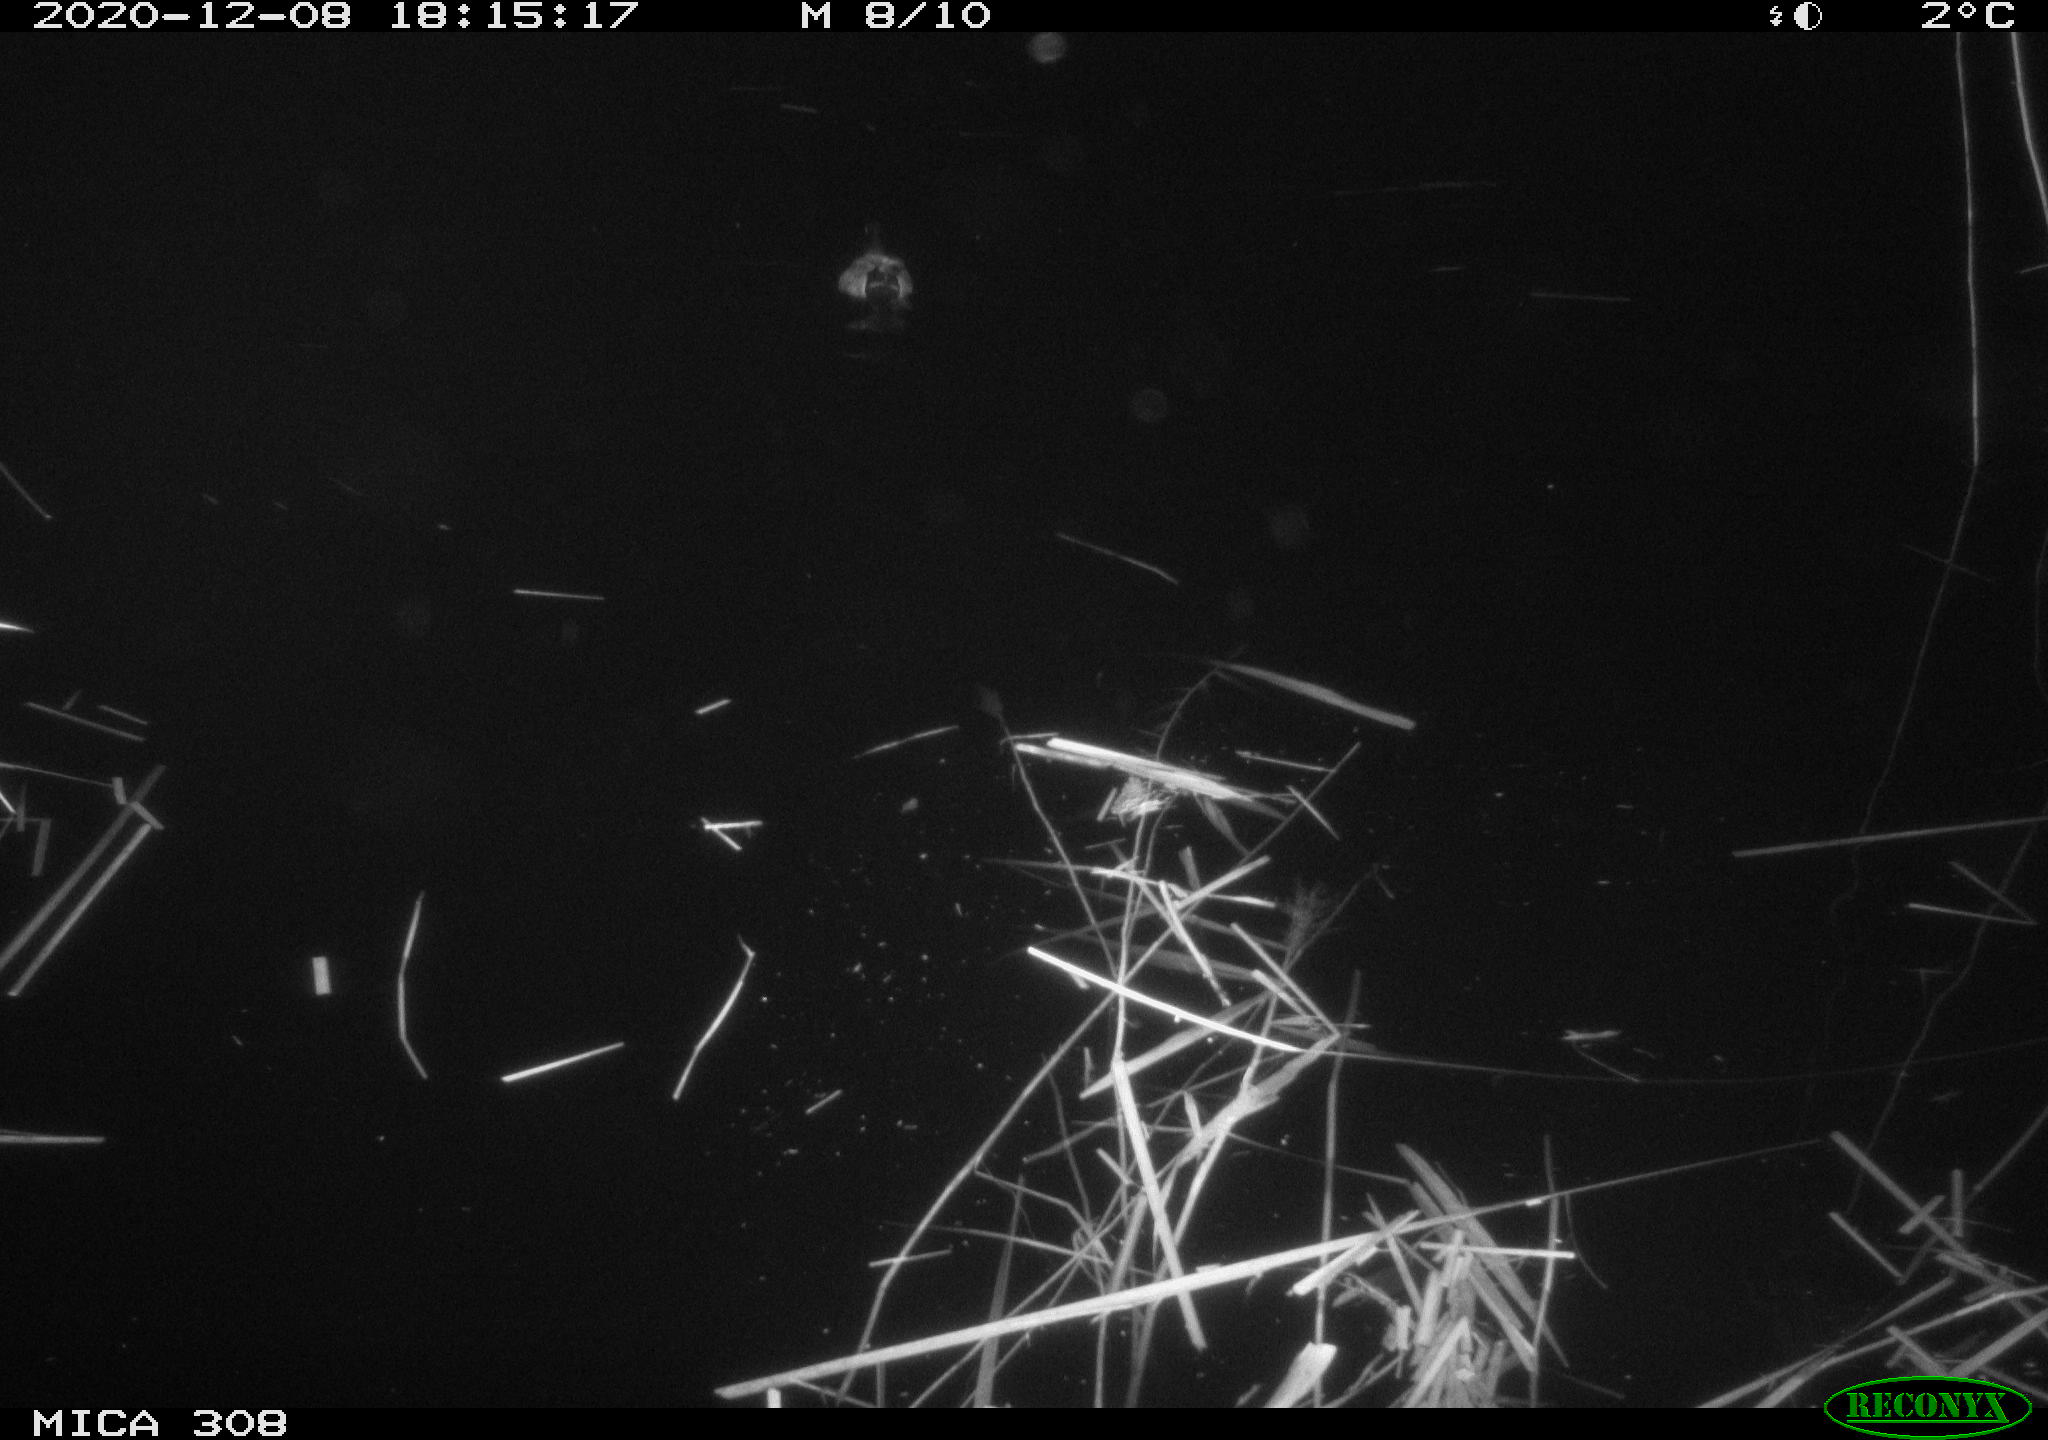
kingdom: Animalia
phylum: Chordata
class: Aves
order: Anseriformes
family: Anatidae
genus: Anas
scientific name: Anas platyrhynchos
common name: Mallard
